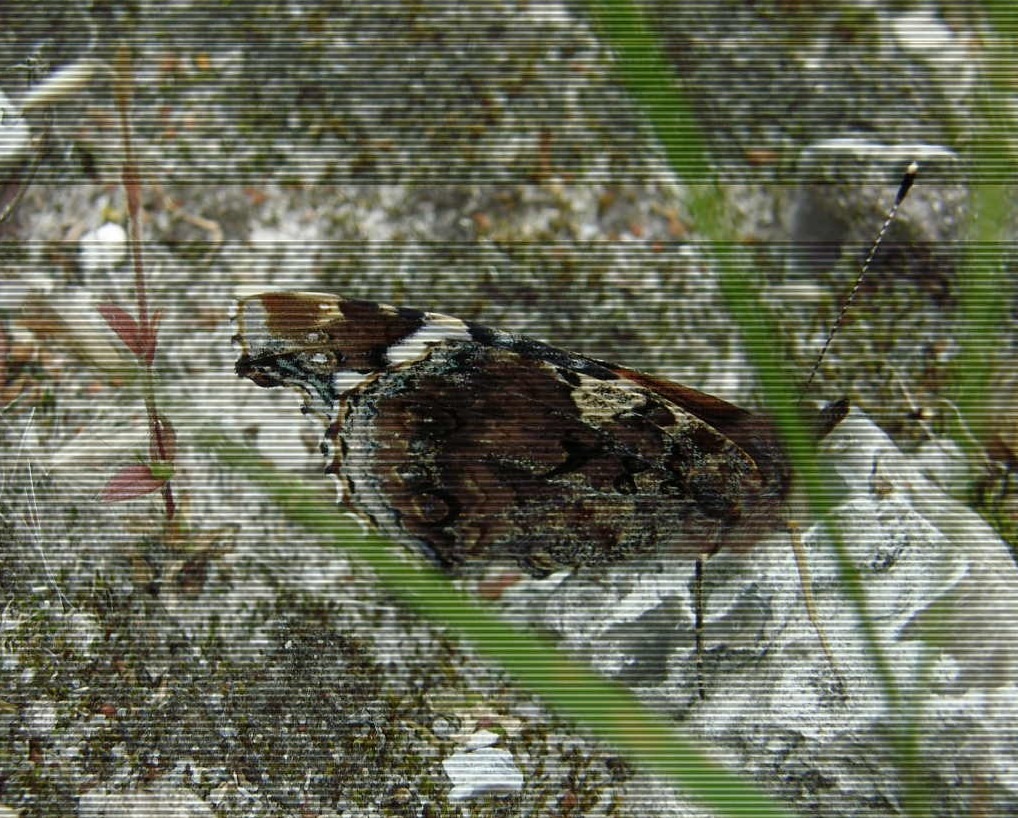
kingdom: Animalia
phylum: Arthropoda
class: Insecta
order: Lepidoptera
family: Nymphalidae
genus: Vanessa
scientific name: Vanessa atalanta
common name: Admiral
